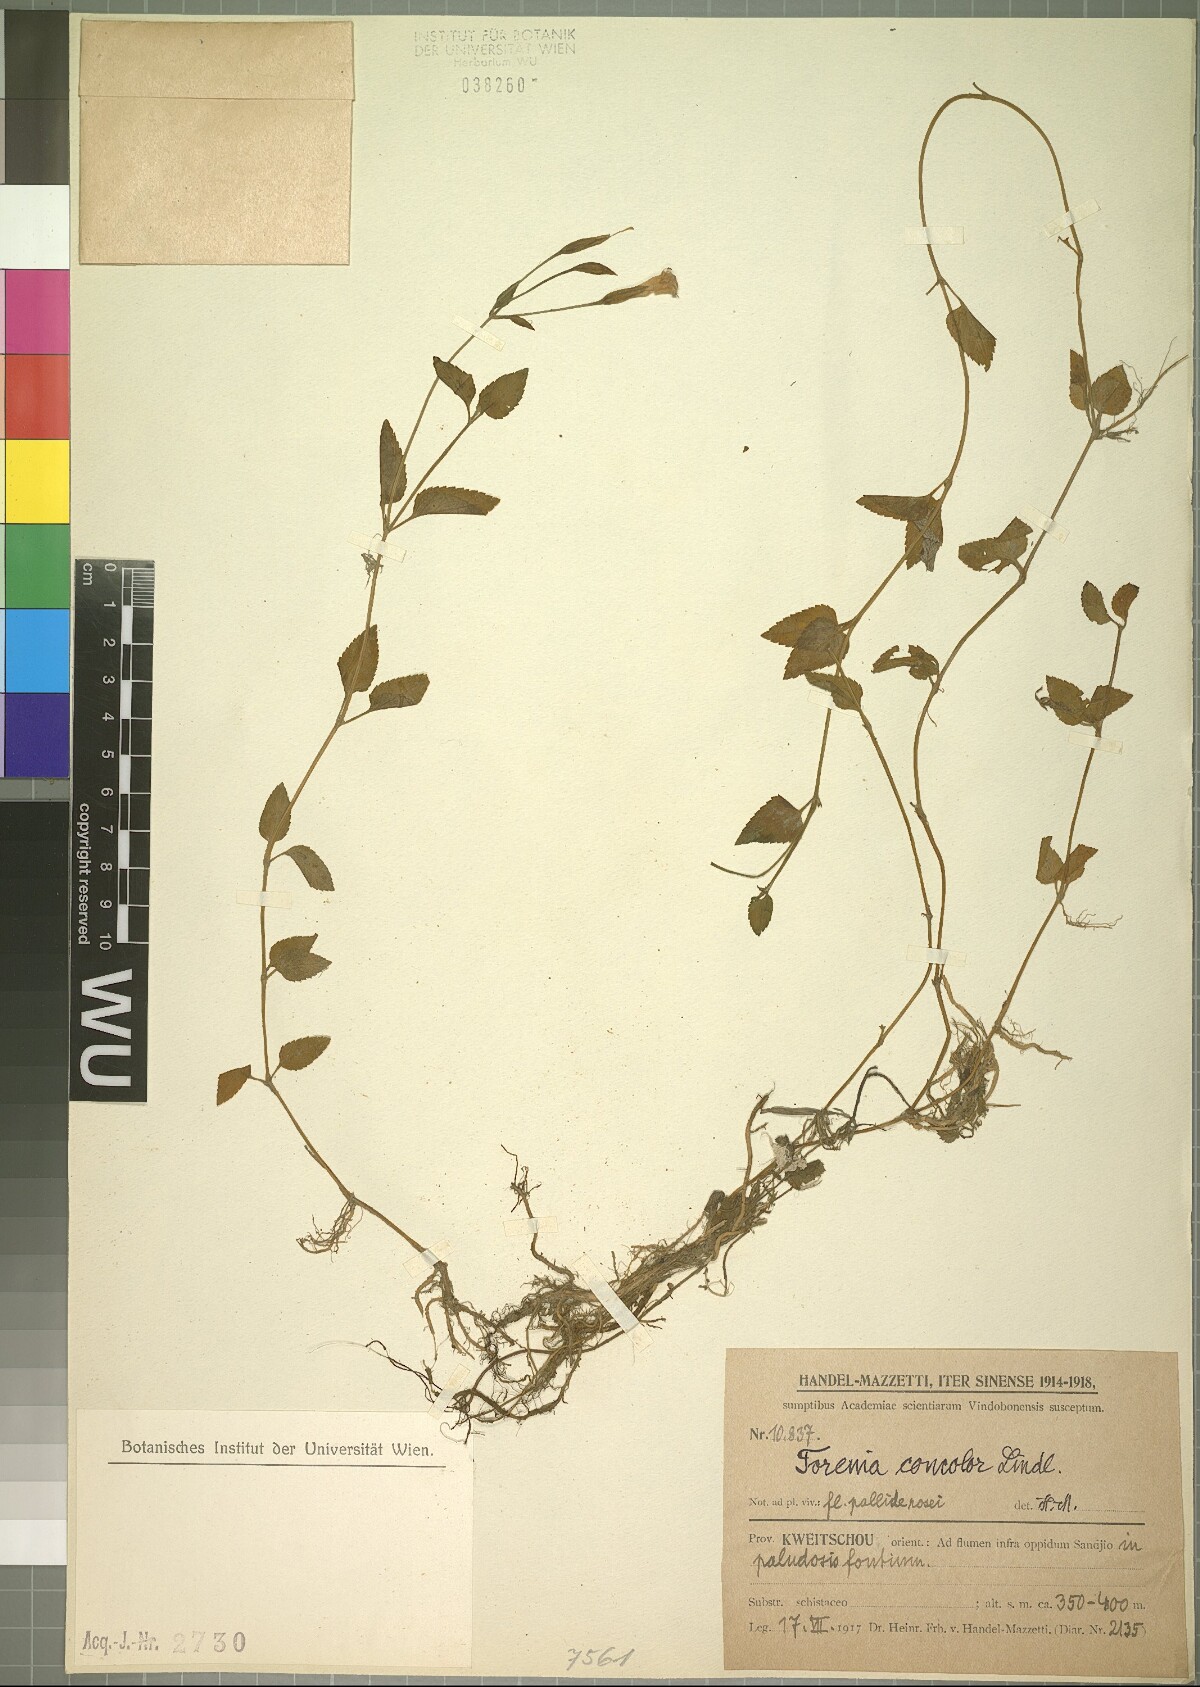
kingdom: Plantae
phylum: Tracheophyta
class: Magnoliopsida
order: Lamiales
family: Linderniaceae
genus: Torenia
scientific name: Torenia concolor
